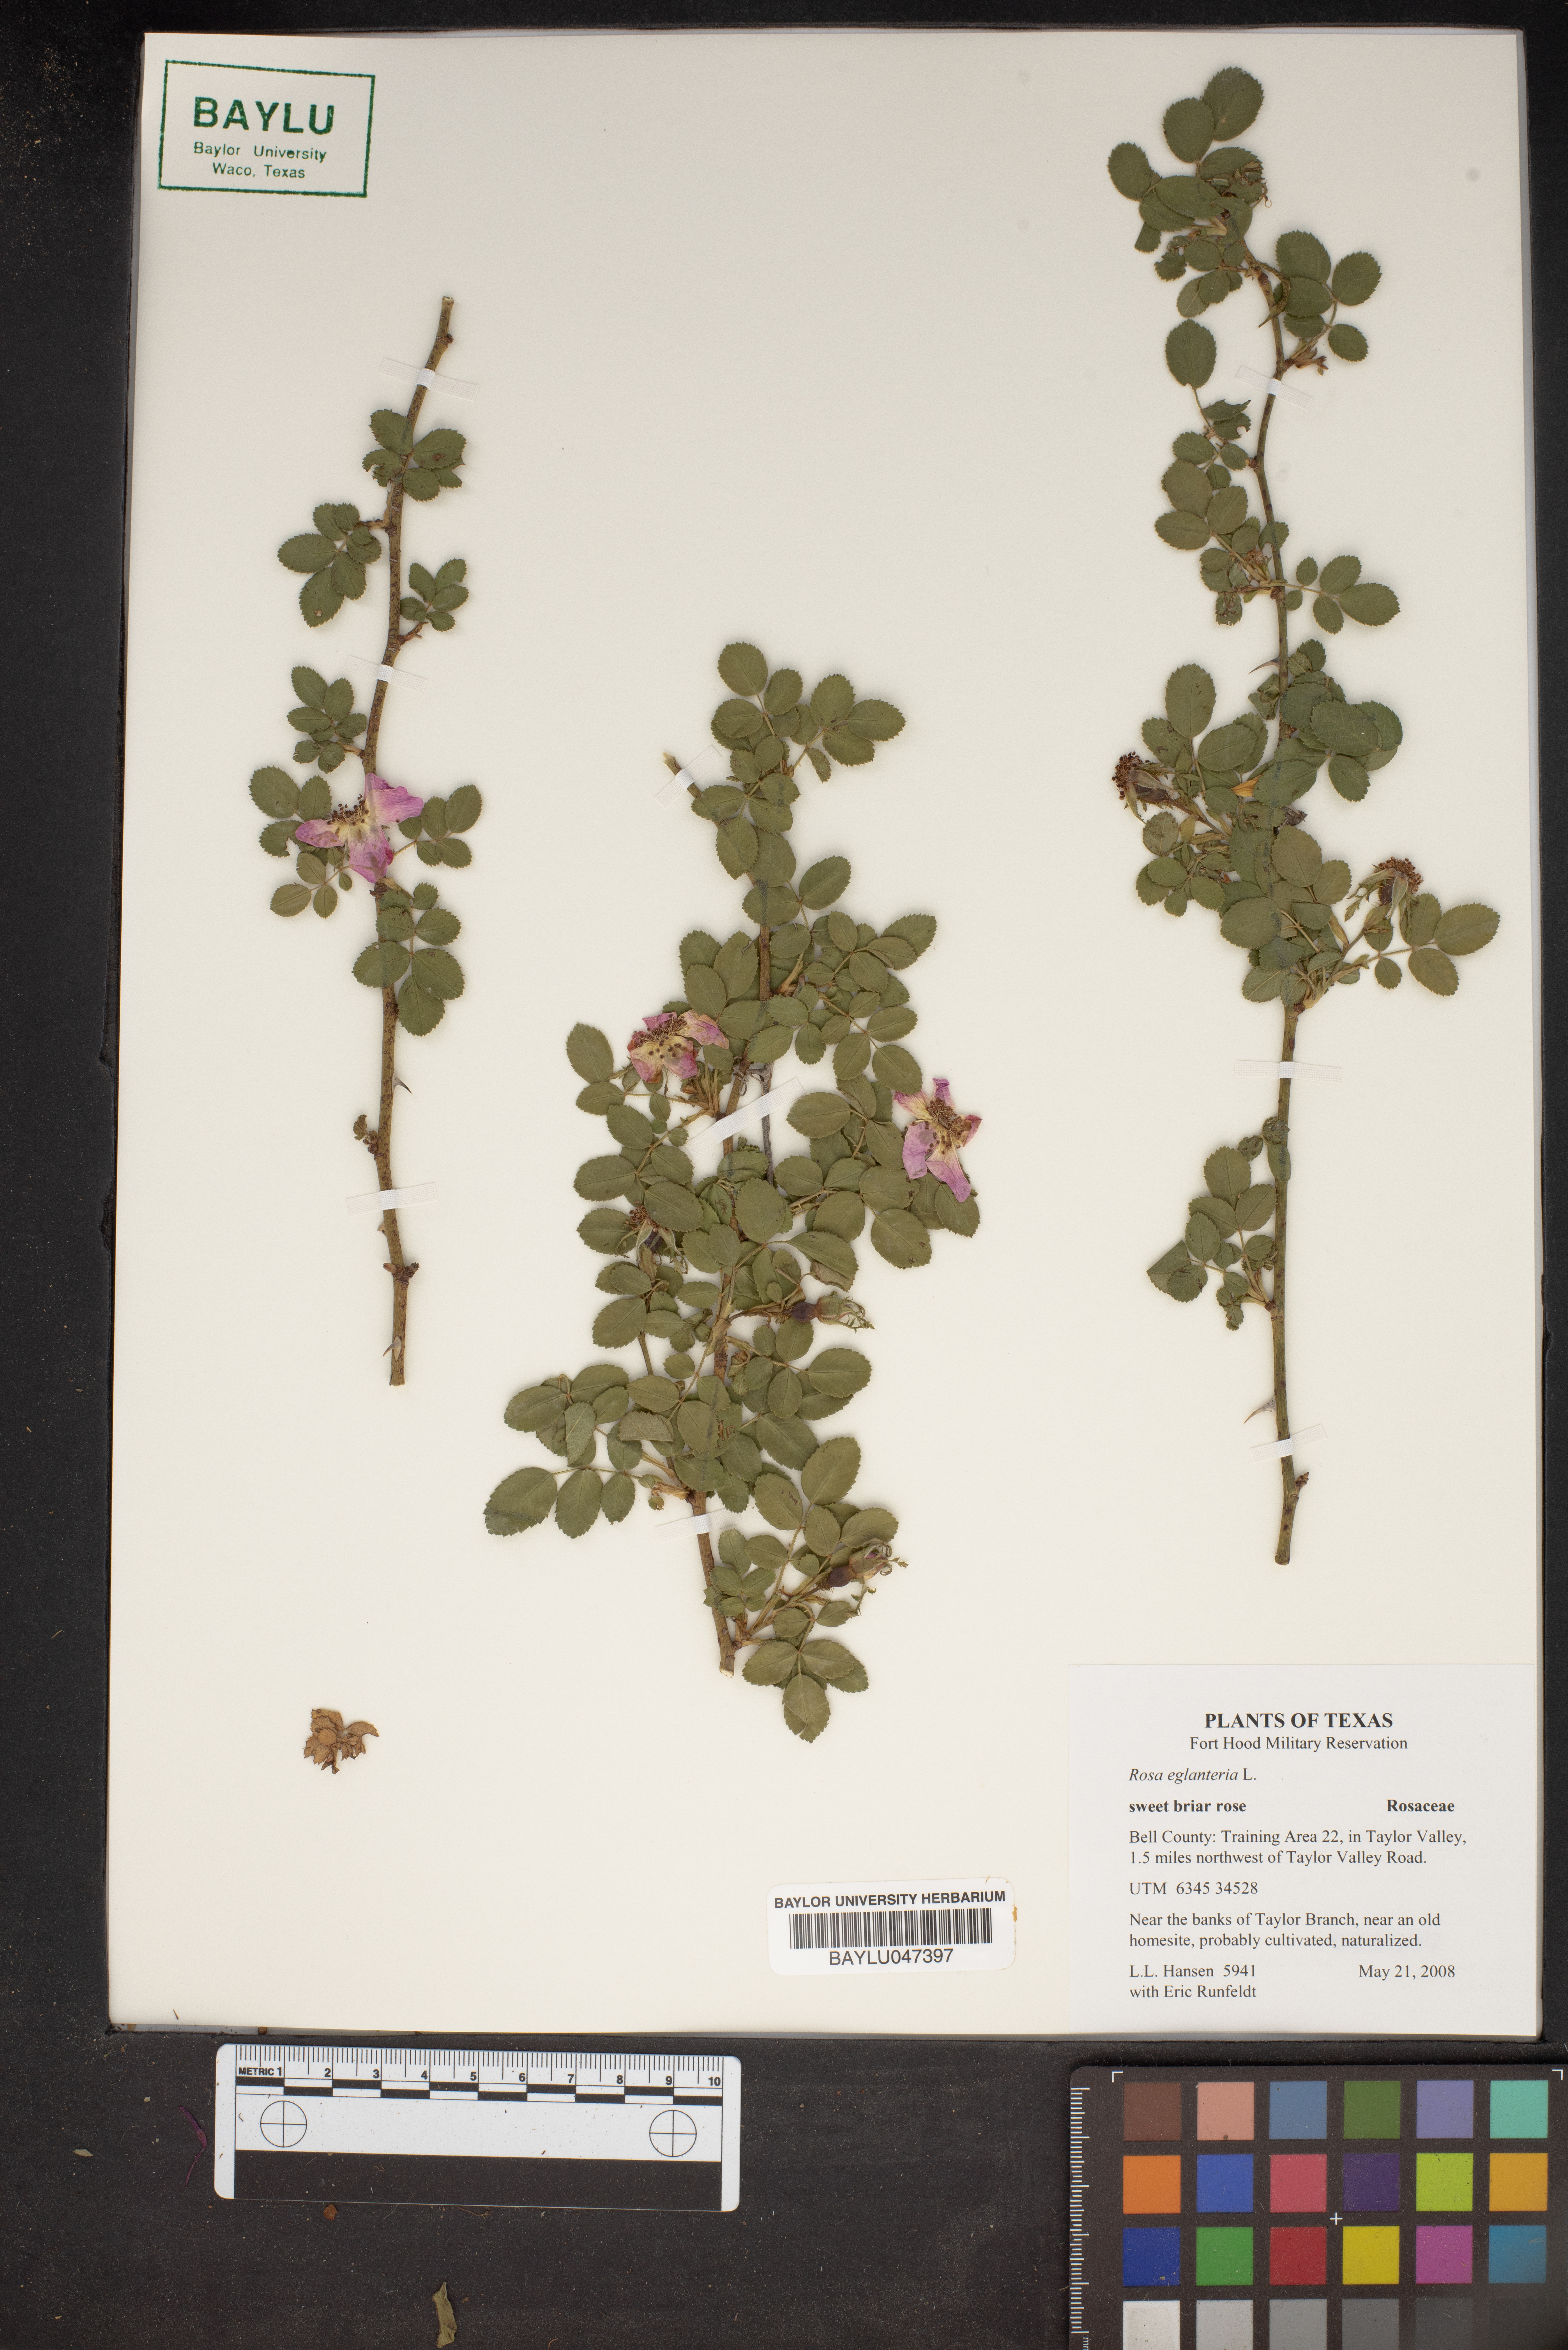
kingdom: Plantae
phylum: Tracheophyta
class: Magnoliopsida
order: Rosales
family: Rosaceae
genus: Rosa
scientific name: Rosa eglanteria
